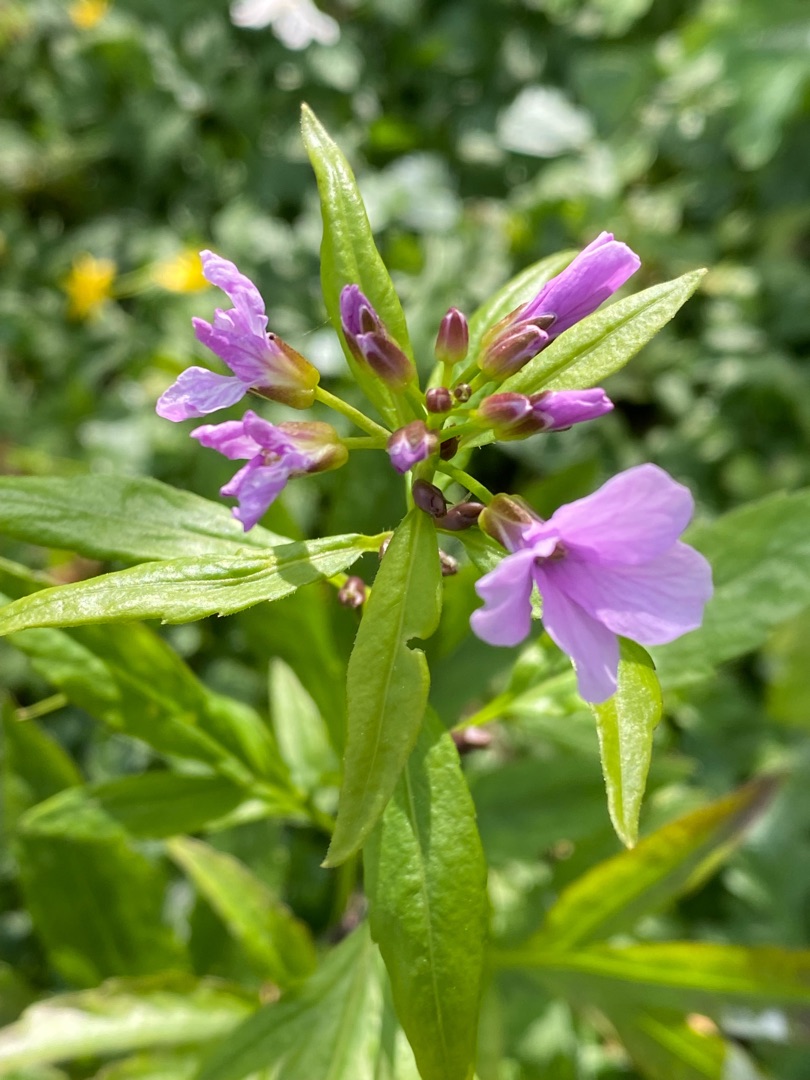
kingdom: Plantae
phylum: Tracheophyta
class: Magnoliopsida
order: Brassicales
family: Brassicaceae
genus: Cardamine
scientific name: Cardamine bulbifera
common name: Tandrod
